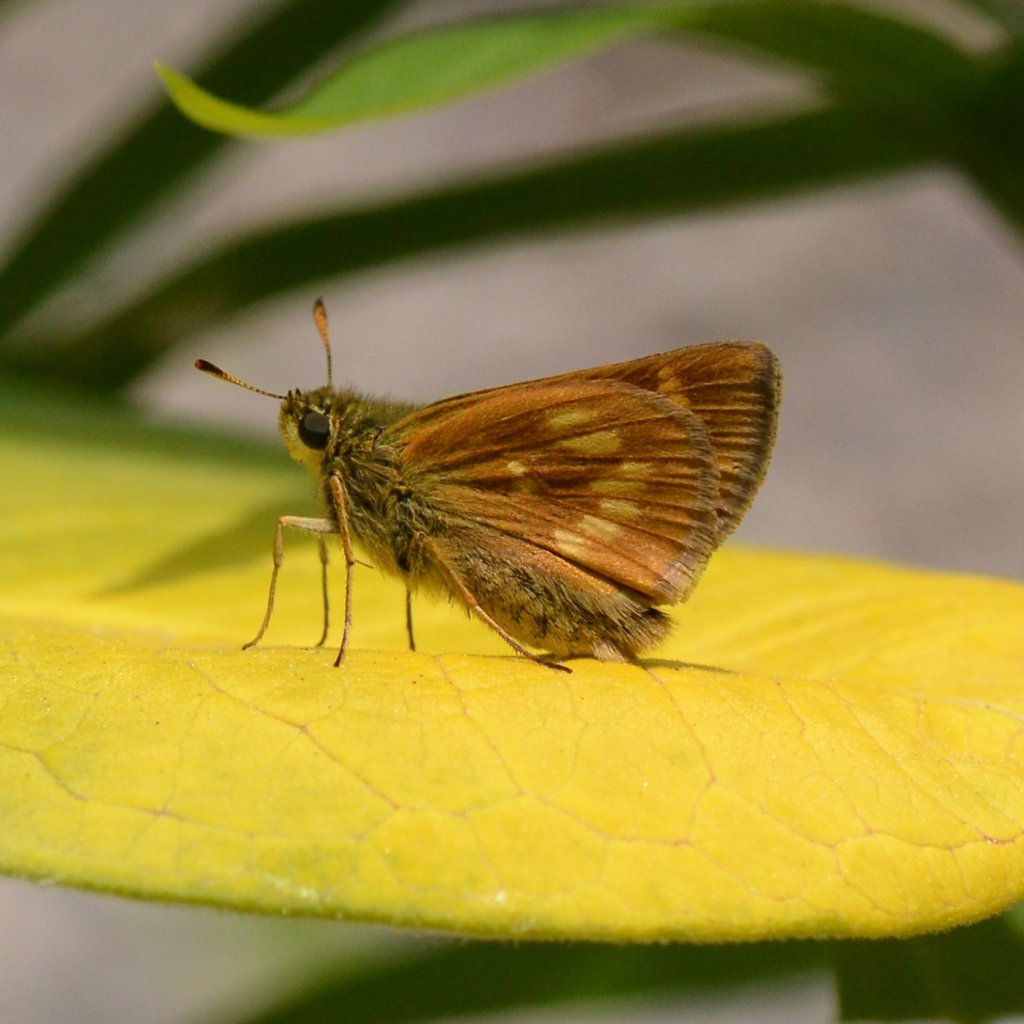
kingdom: Animalia
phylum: Arthropoda
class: Insecta
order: Lepidoptera
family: Hesperiidae
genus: Polites
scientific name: Polites
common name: Long Dash Skipper
